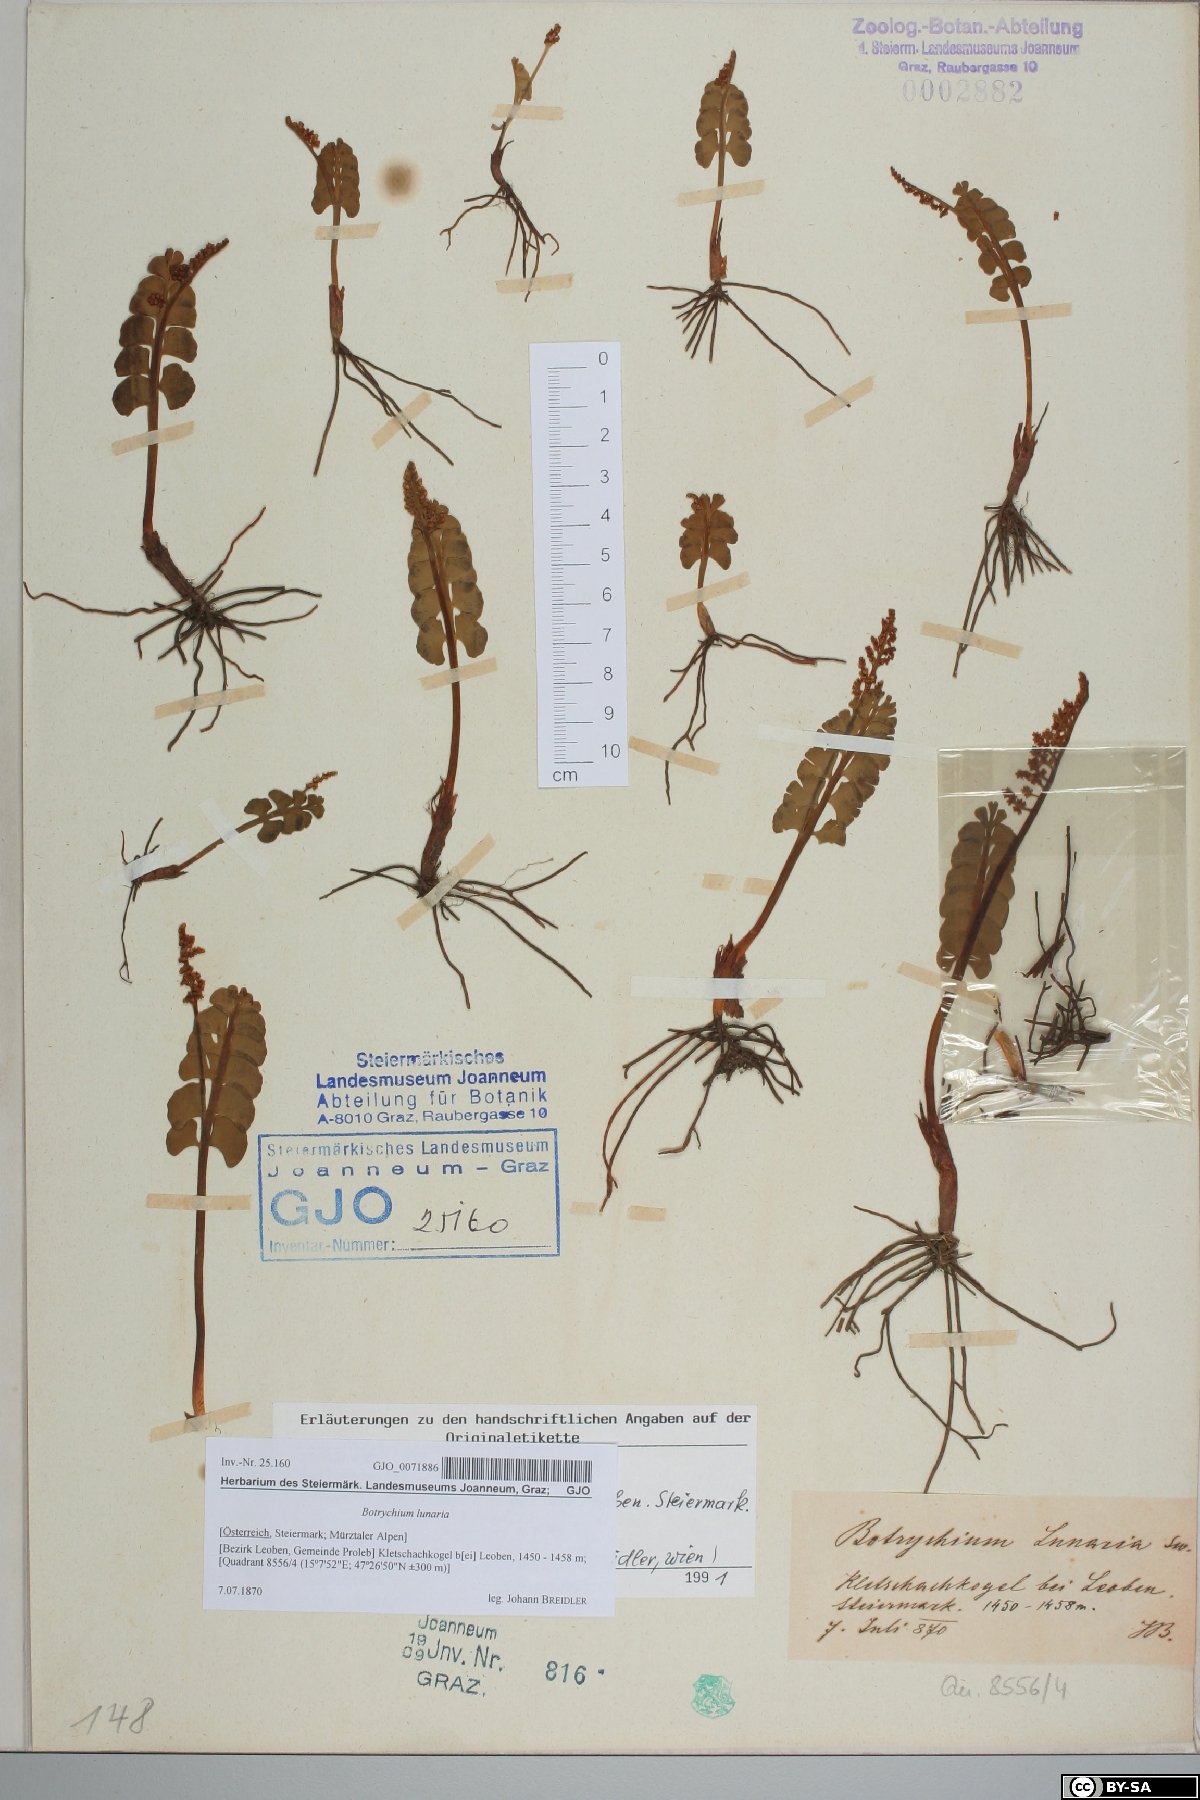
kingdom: Plantae
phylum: Tracheophyta
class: Polypodiopsida
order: Ophioglossales
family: Ophioglossaceae
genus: Botrychium
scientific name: Botrychium lunaria
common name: Moonwort
